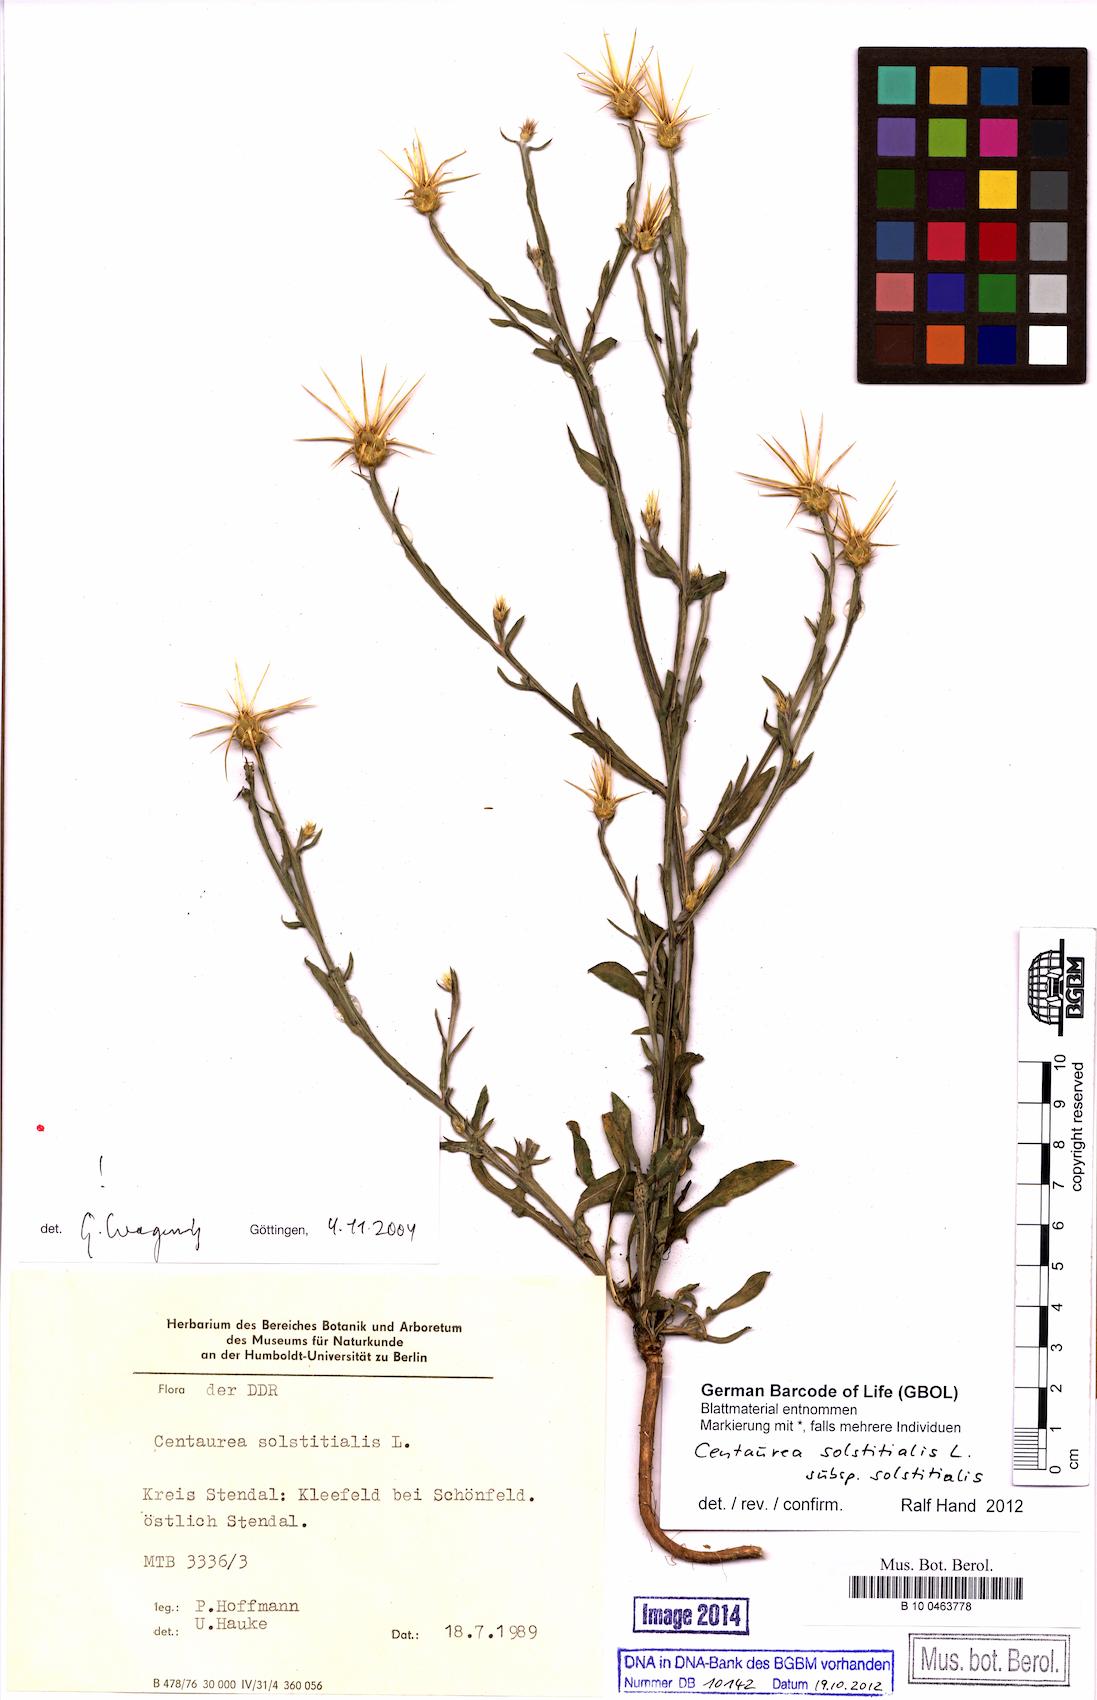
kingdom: Plantae
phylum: Tracheophyta
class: Magnoliopsida
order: Asterales
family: Asteraceae
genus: Centaurea
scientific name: Centaurea solstitialis
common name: Yellow star-thistle
